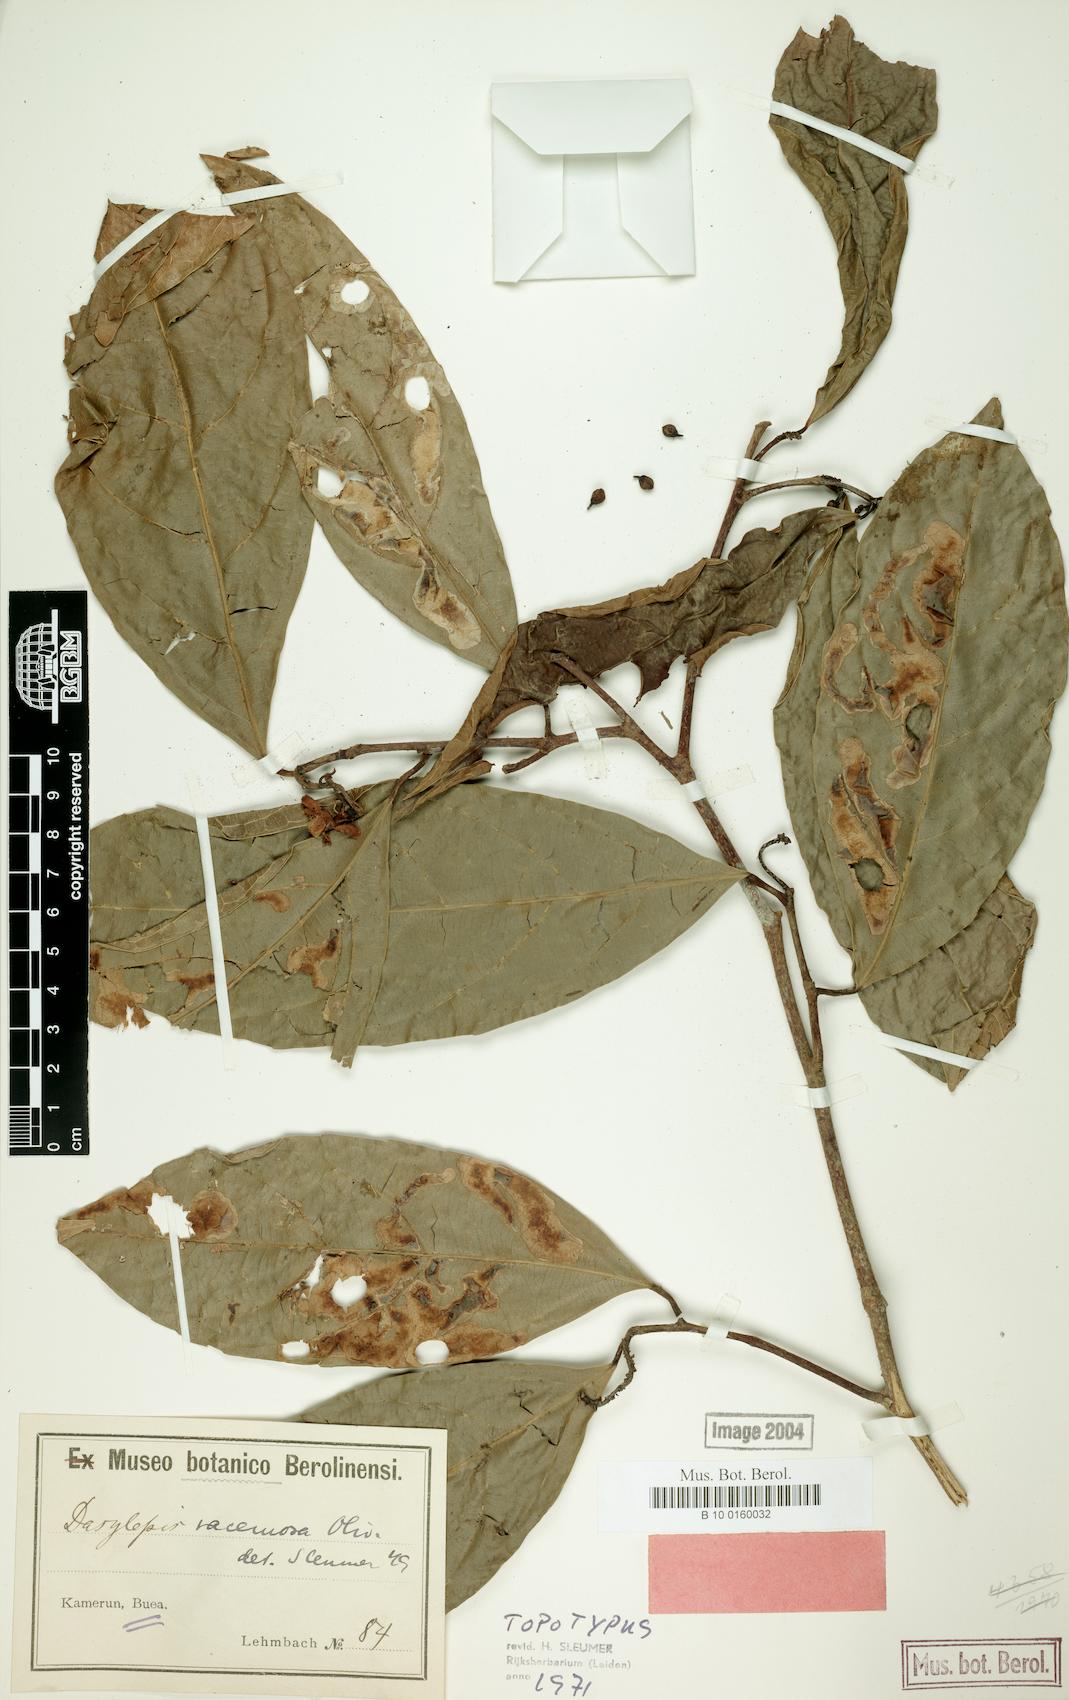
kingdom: Plantae
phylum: Tracheophyta
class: Magnoliopsida
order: Malpighiales
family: Achariaceae
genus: Dasylepis
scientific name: Dasylepis racemosa
